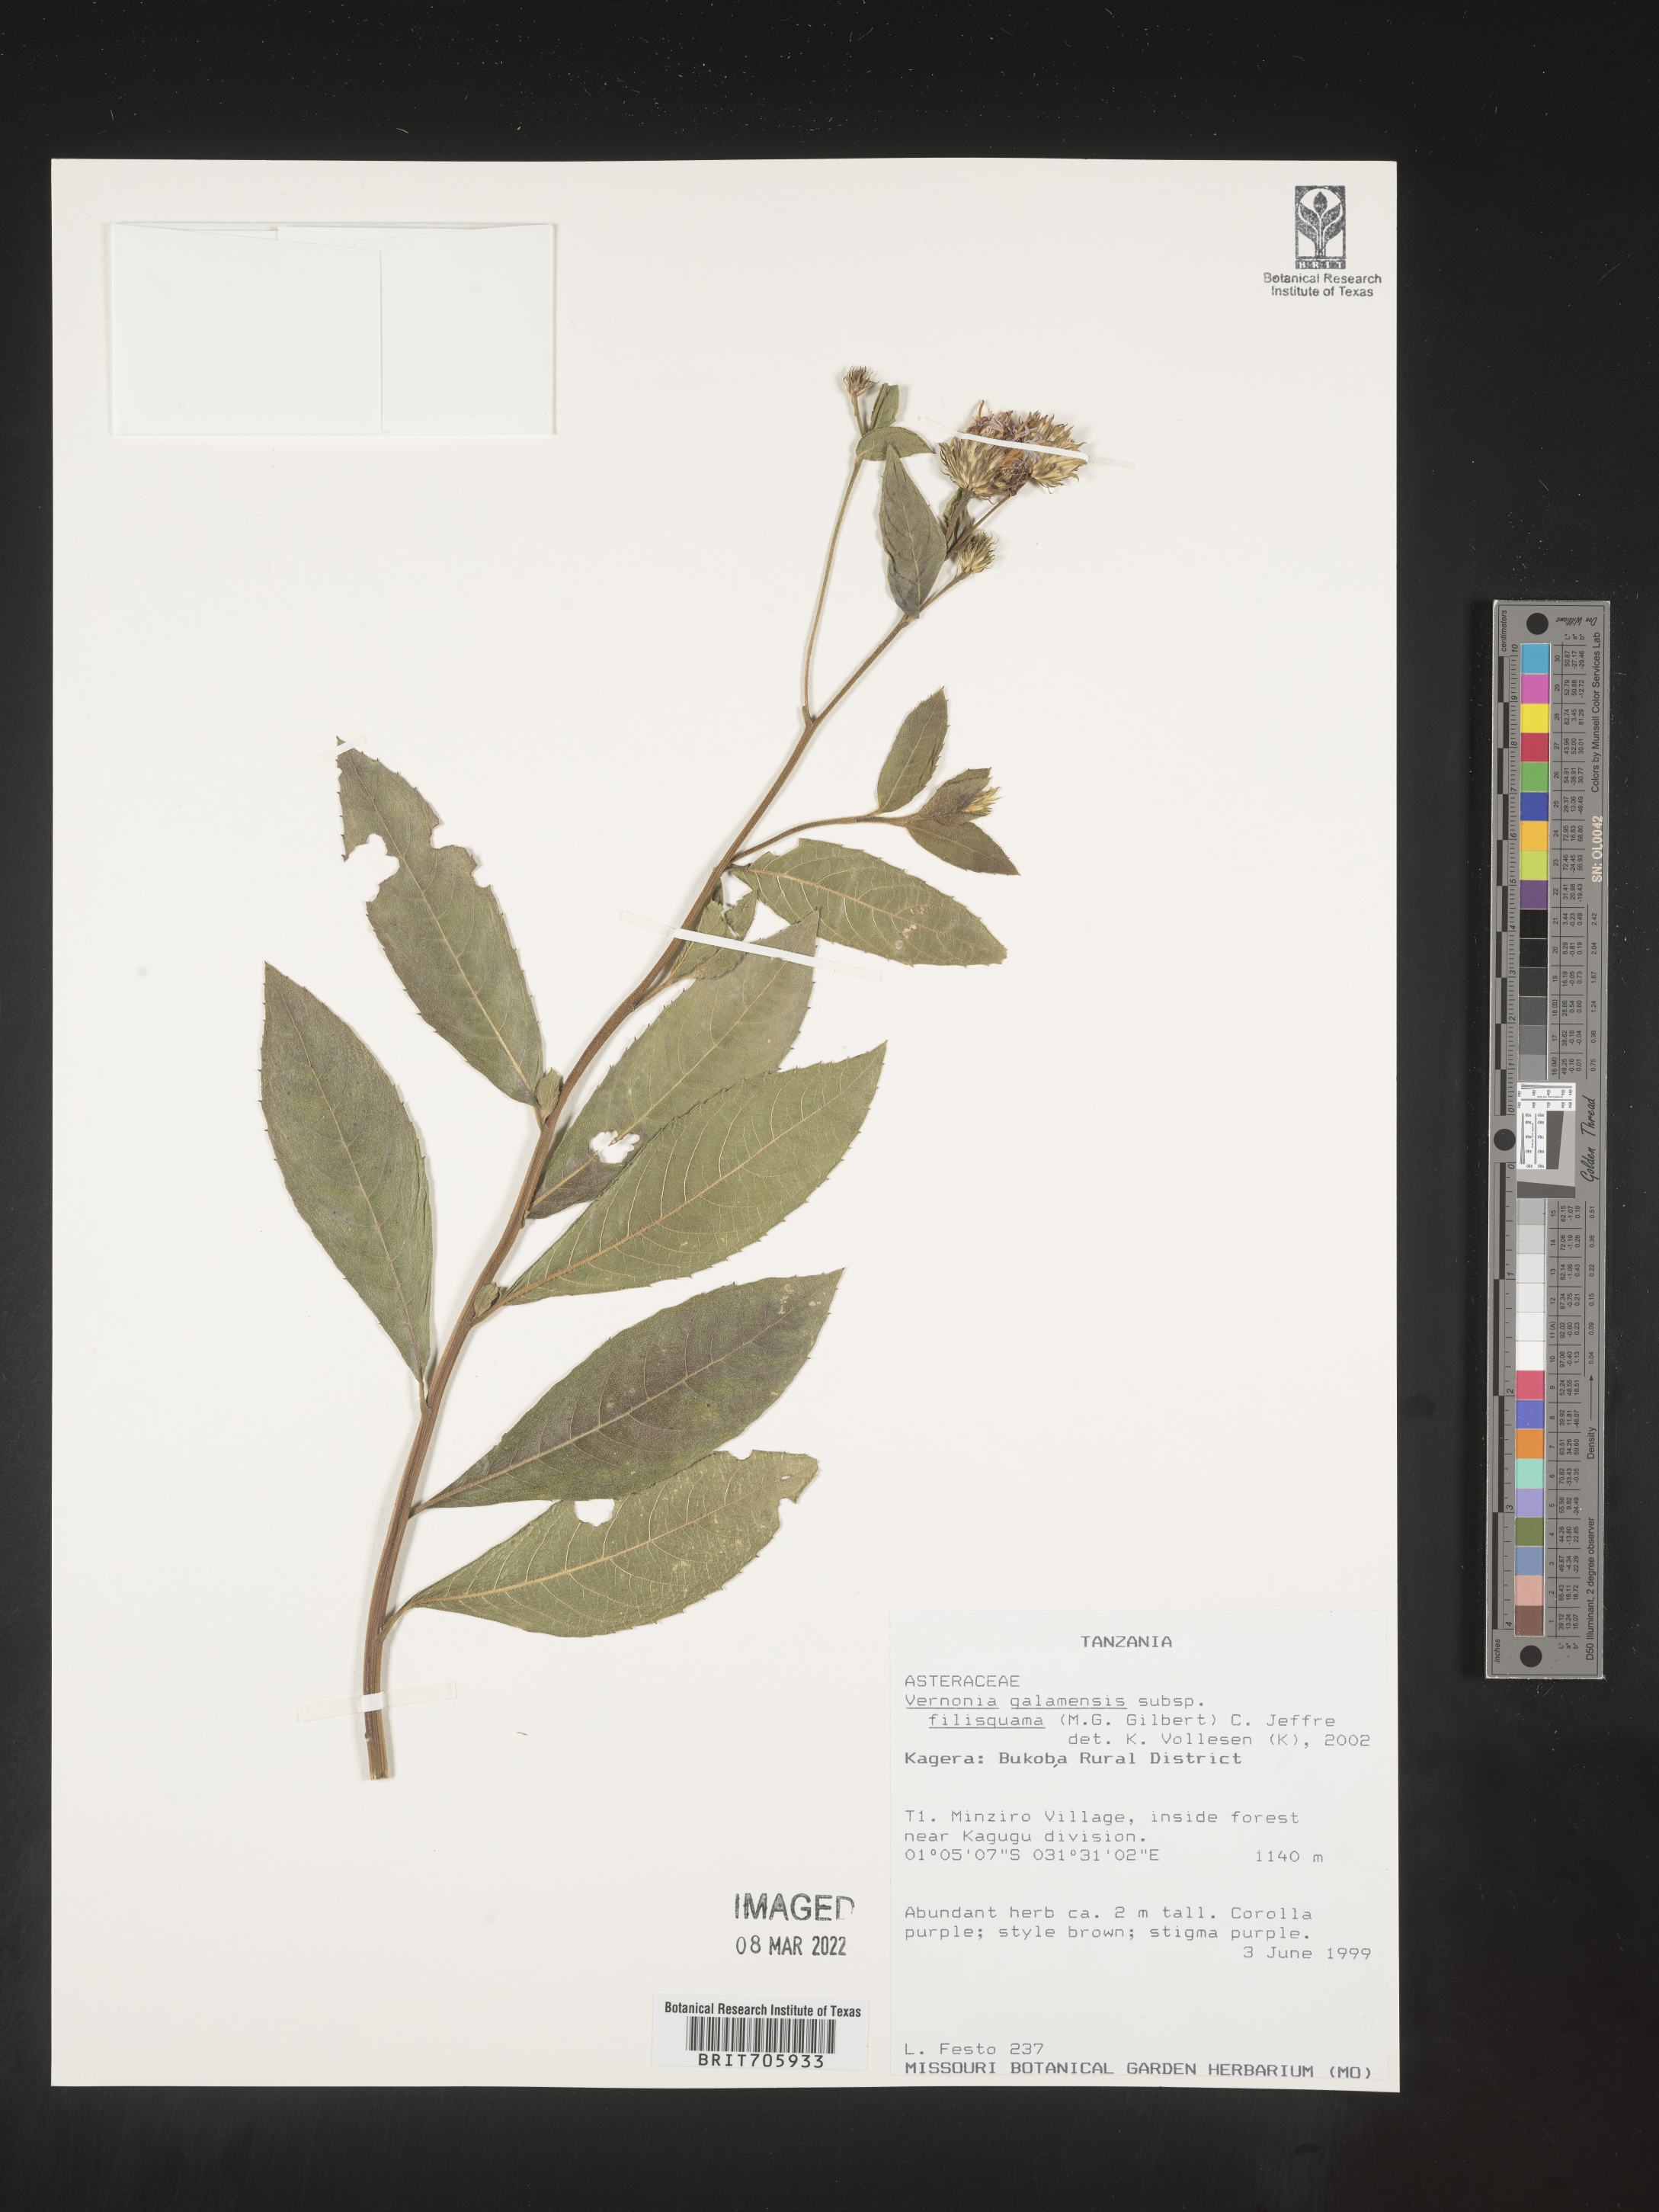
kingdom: Plantae
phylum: Tracheophyta
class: Magnoliopsida
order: Asterales
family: Asteraceae
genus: Vernonia
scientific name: Vernonia
